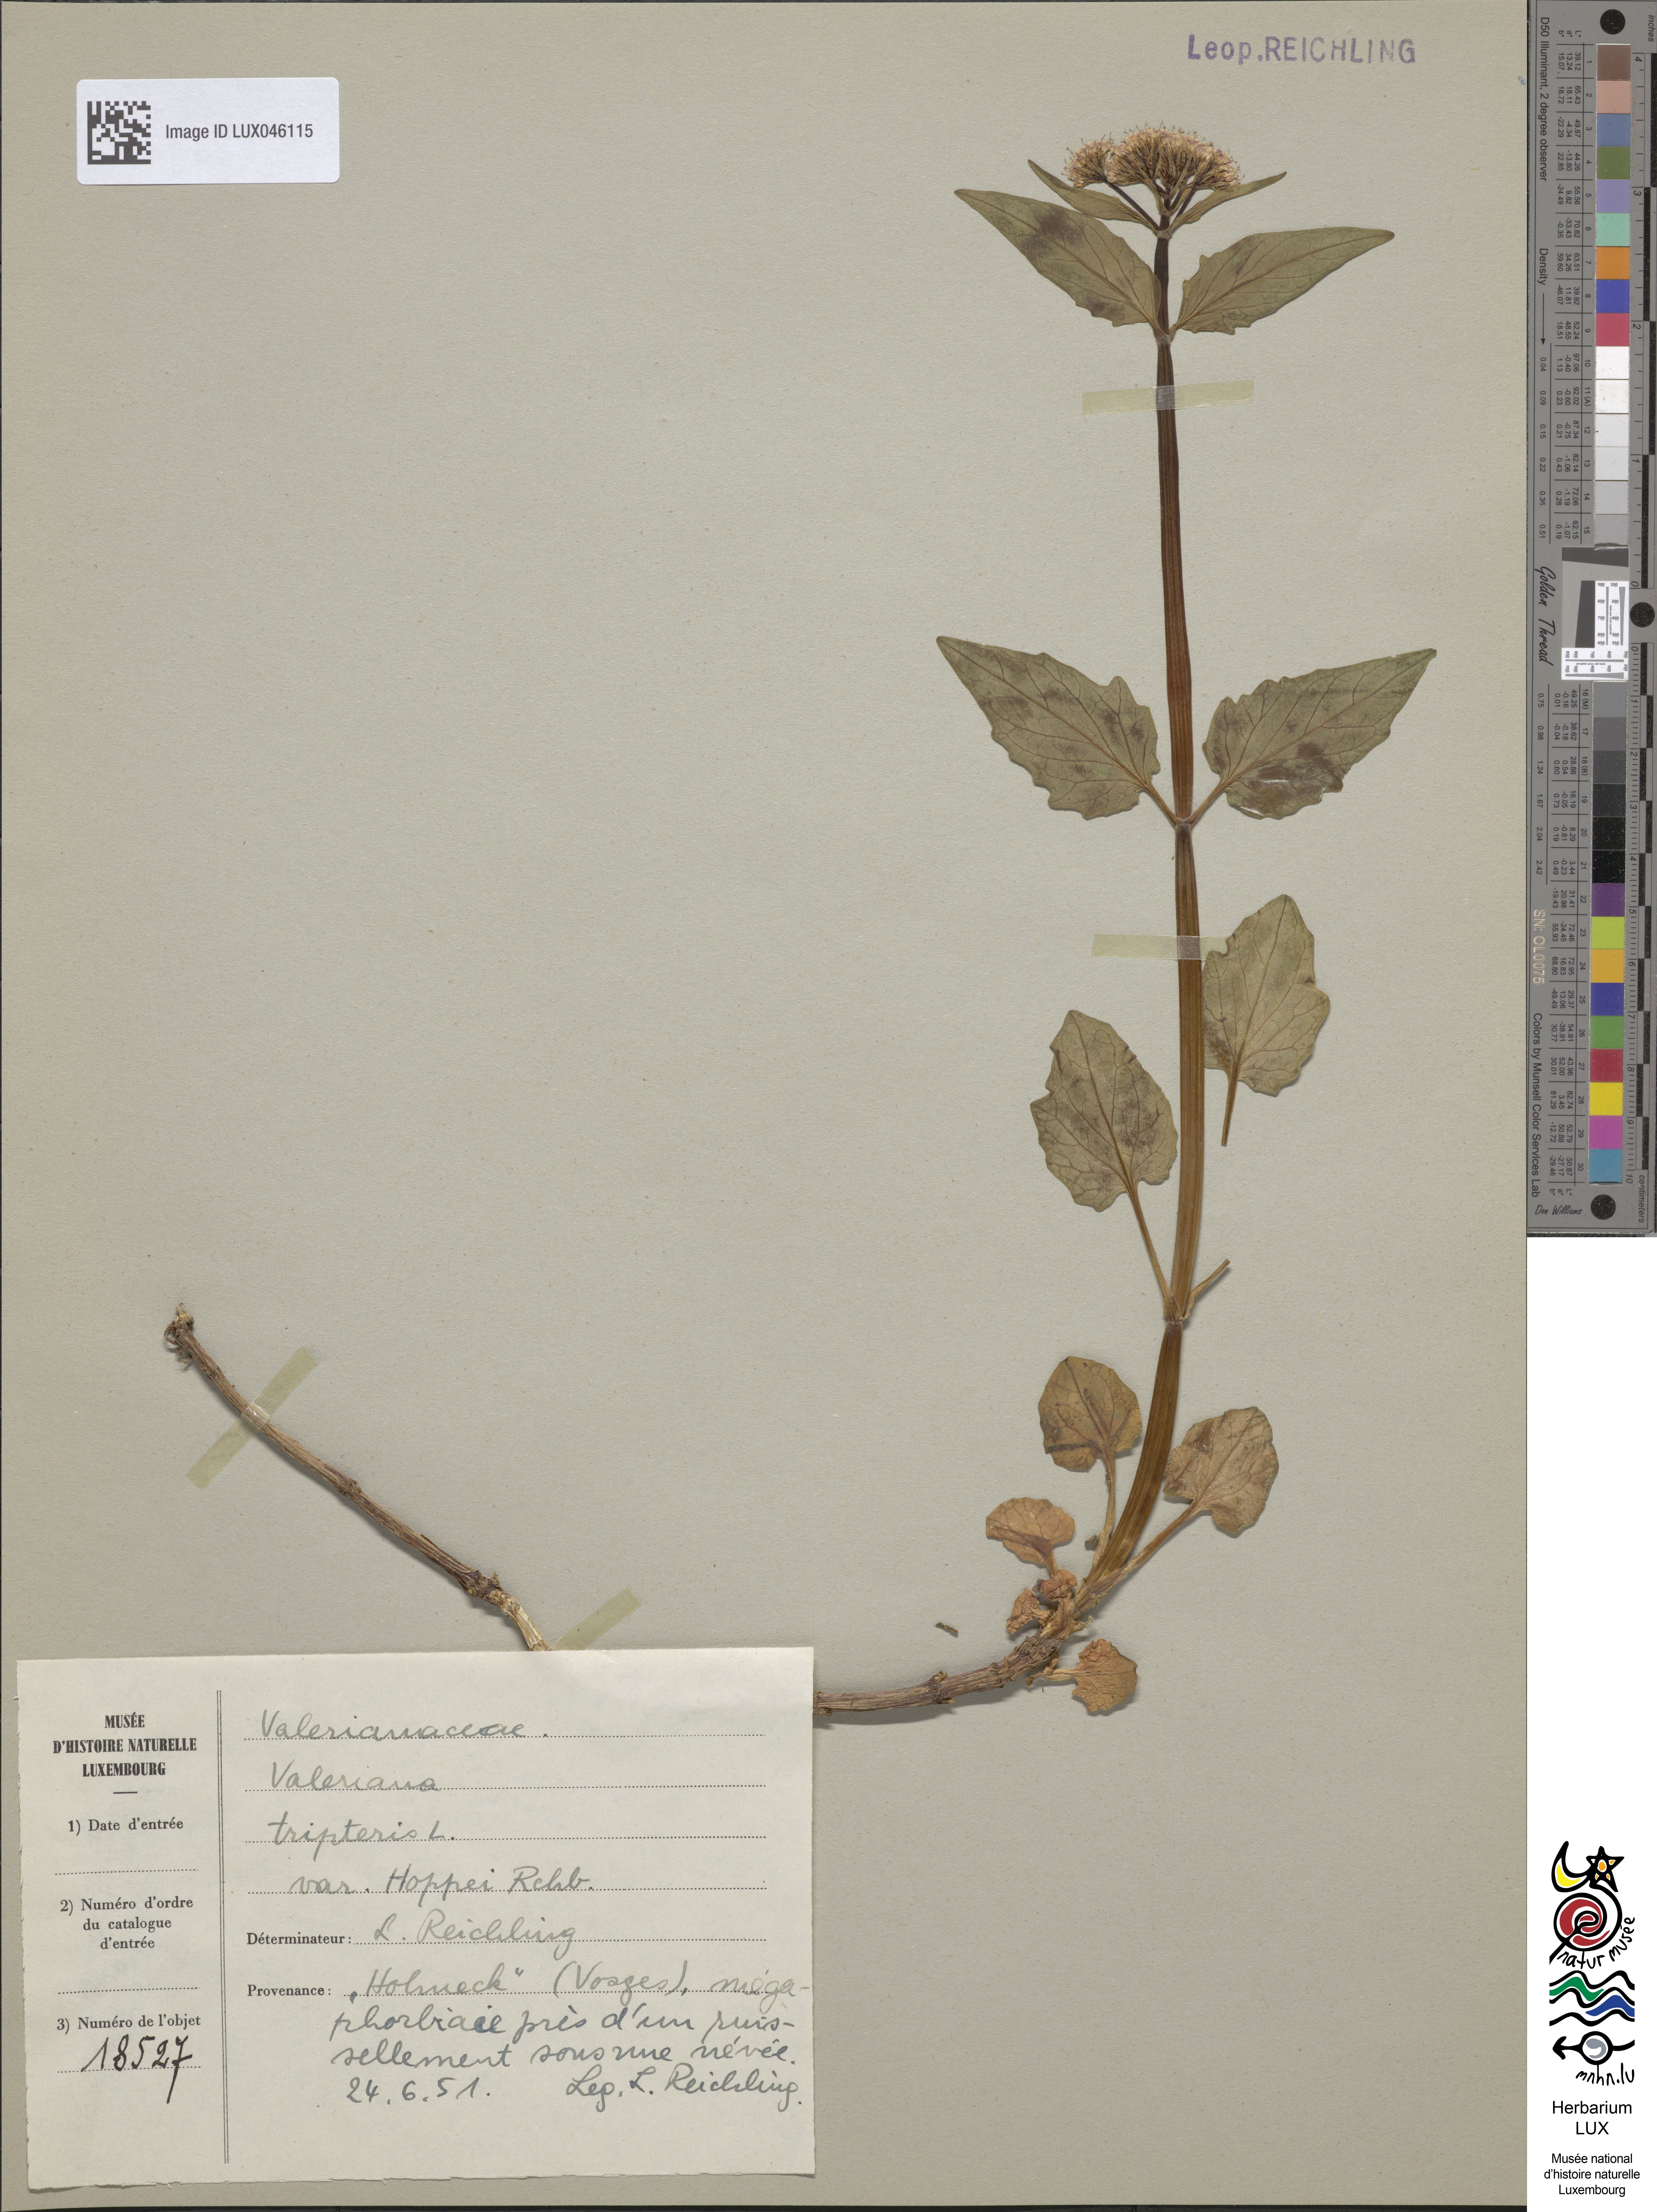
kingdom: Plantae
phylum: Tracheophyta
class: Magnoliopsida
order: Dipsacales
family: Caprifoliaceae
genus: Valeriana
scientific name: Valeriana tripteris
